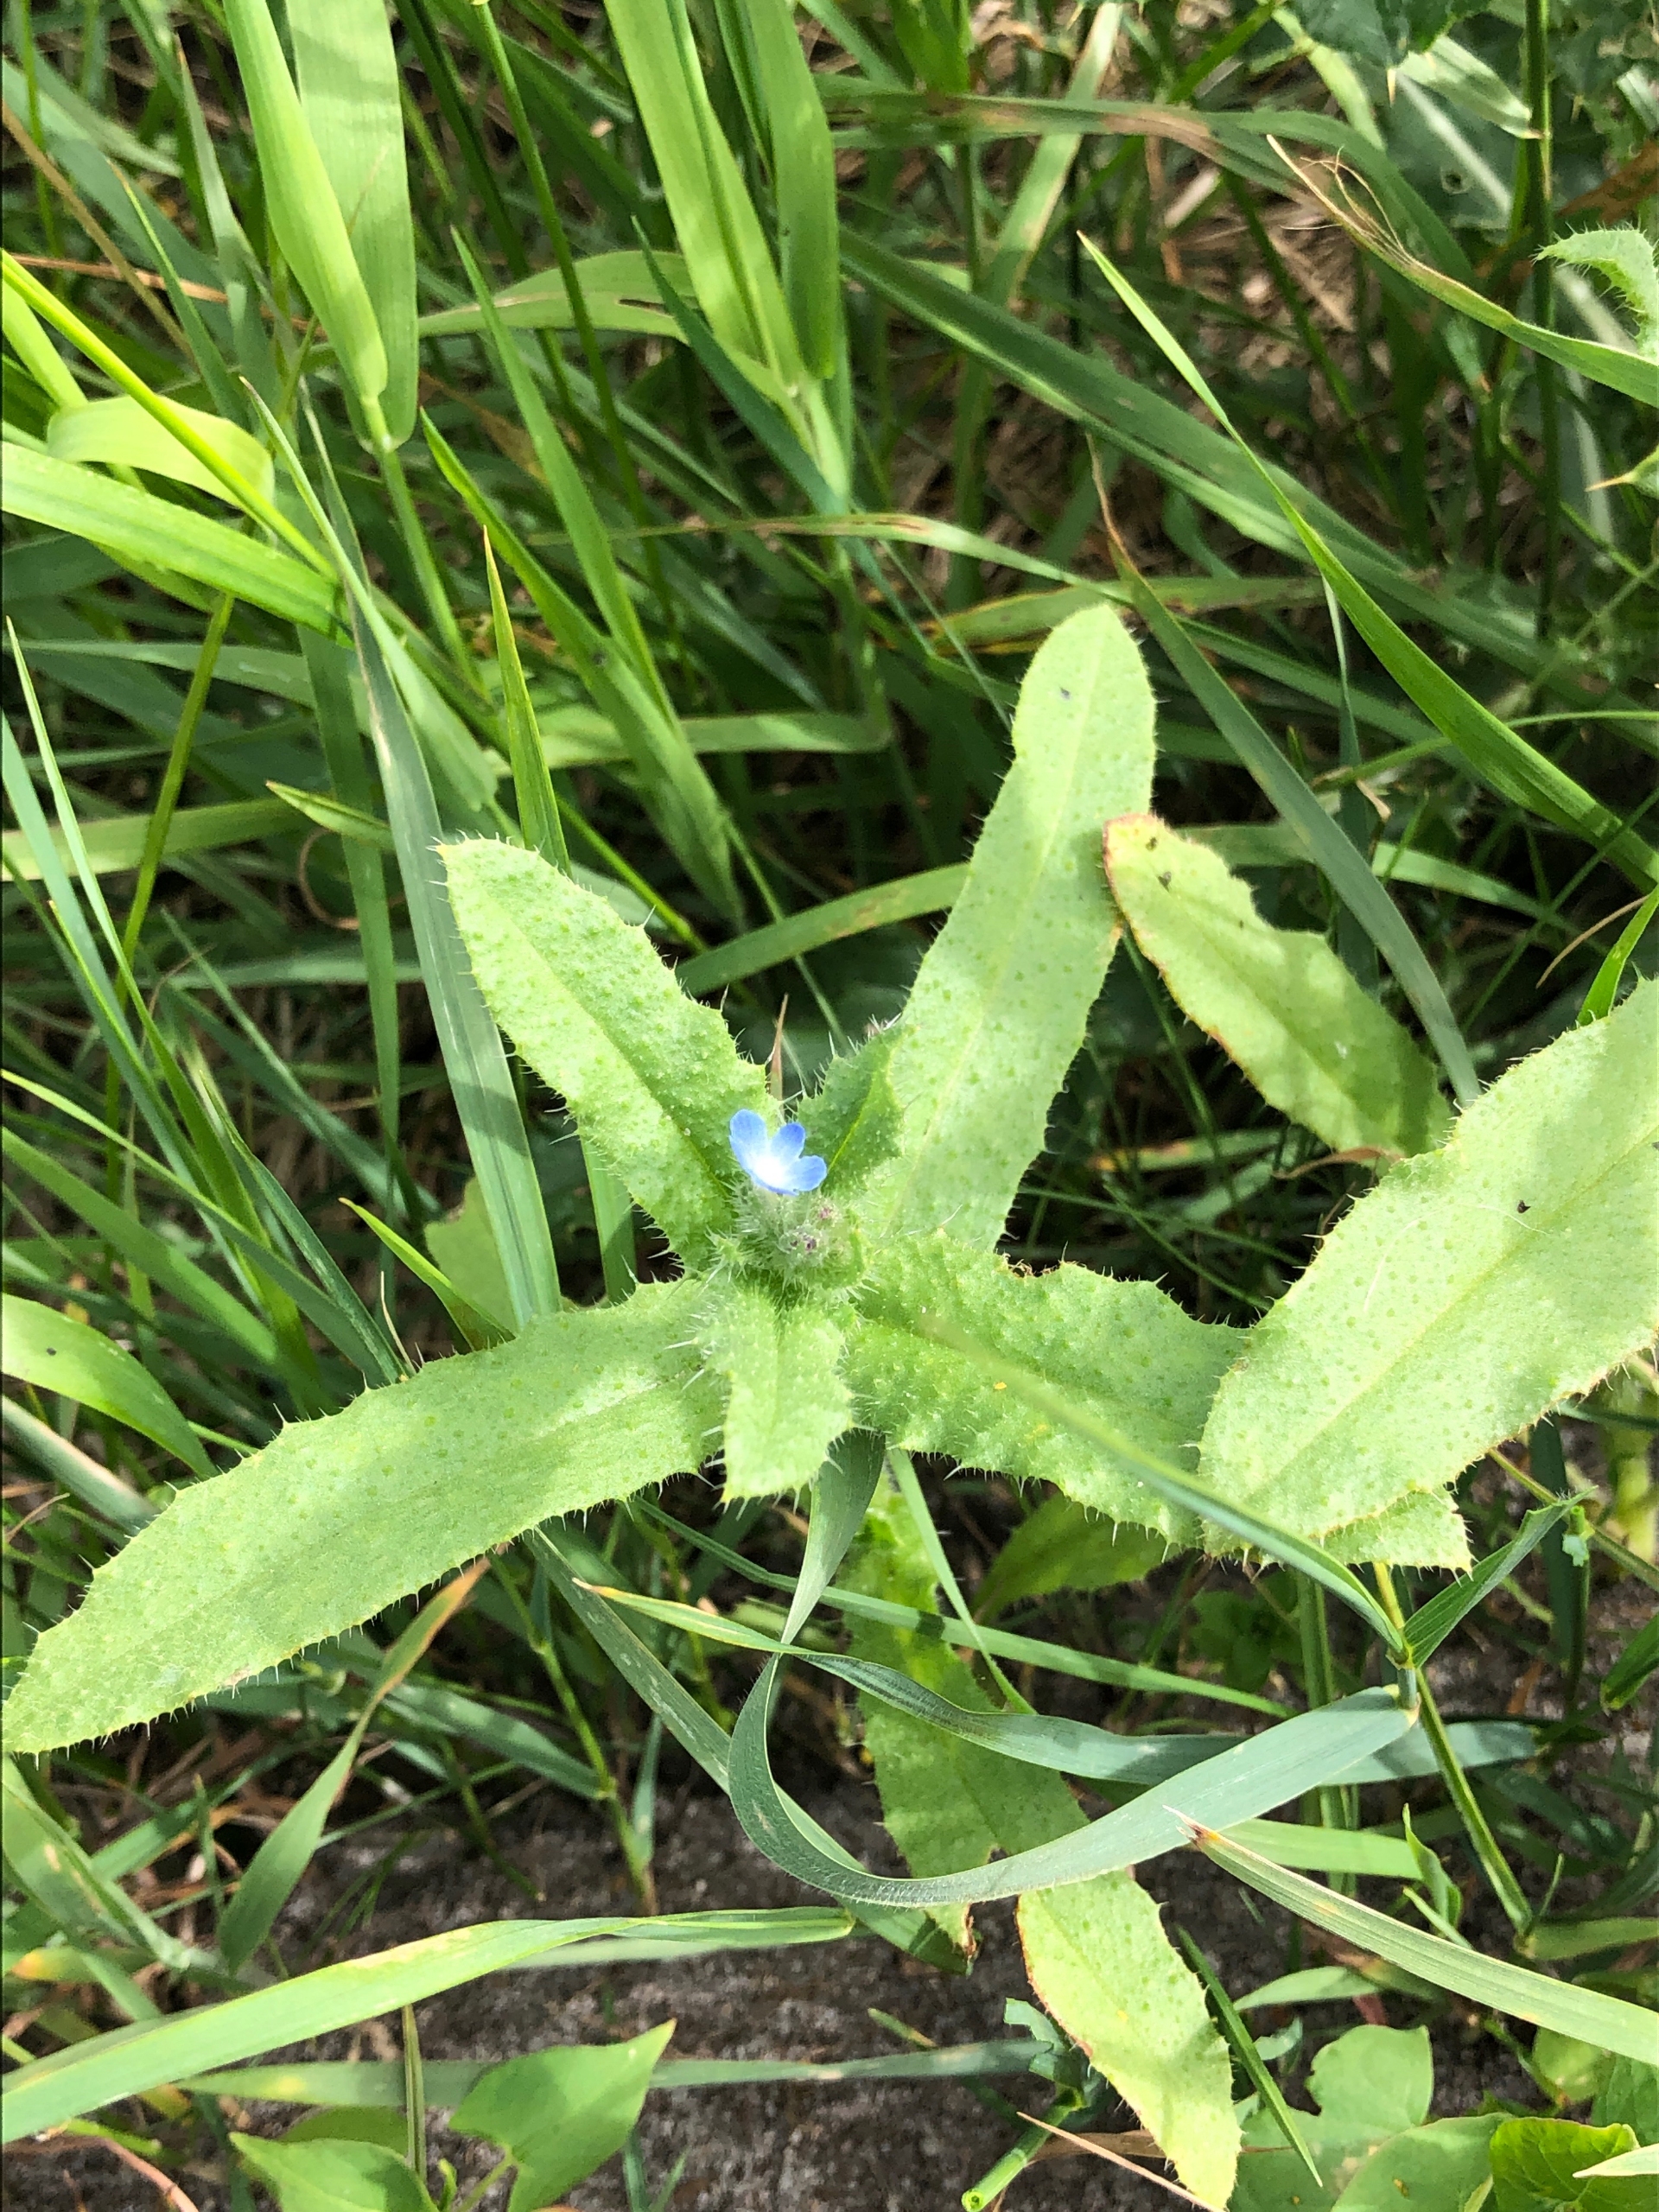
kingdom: Plantae
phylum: Tracheophyta
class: Magnoliopsida
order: Boraginales
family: Boraginaceae
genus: Lycopsis
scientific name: Lycopsis arvensis
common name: Krumhals
